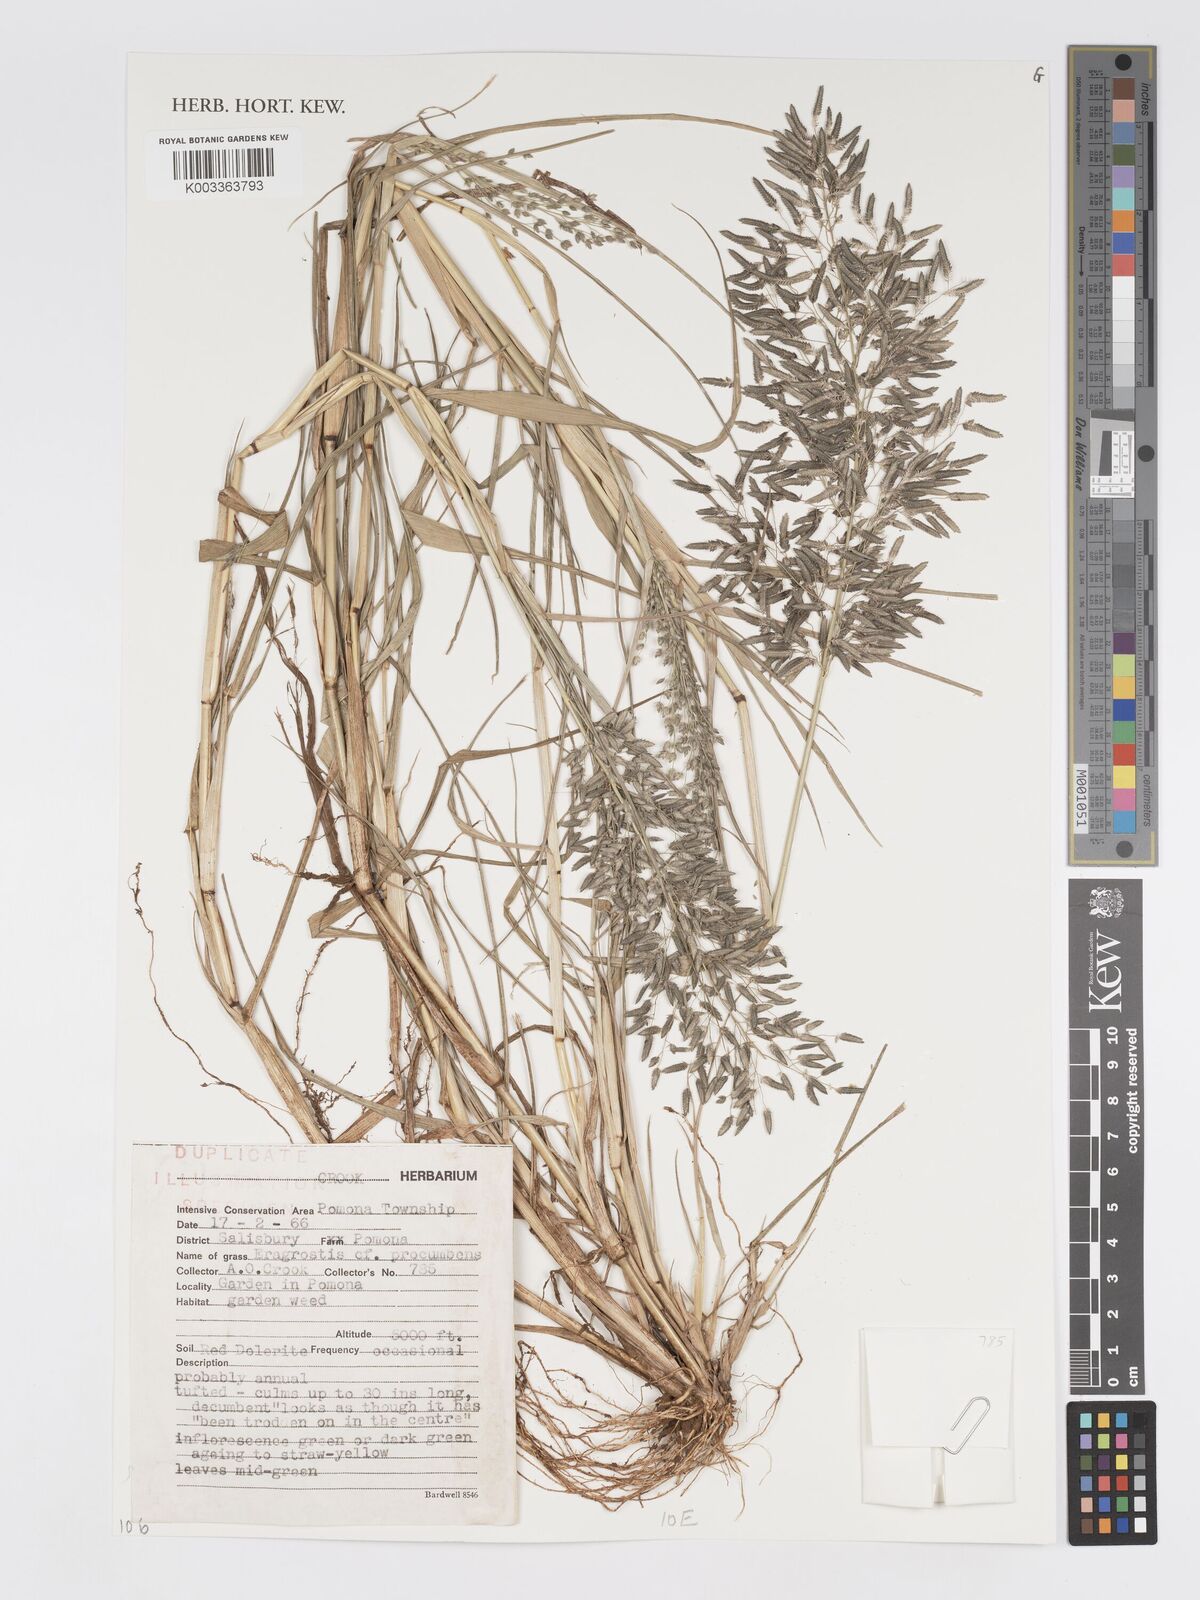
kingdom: Plantae
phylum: Tracheophyta
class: Liliopsida
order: Poales
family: Poaceae
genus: Eragrostis
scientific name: Eragrostis procumbens
